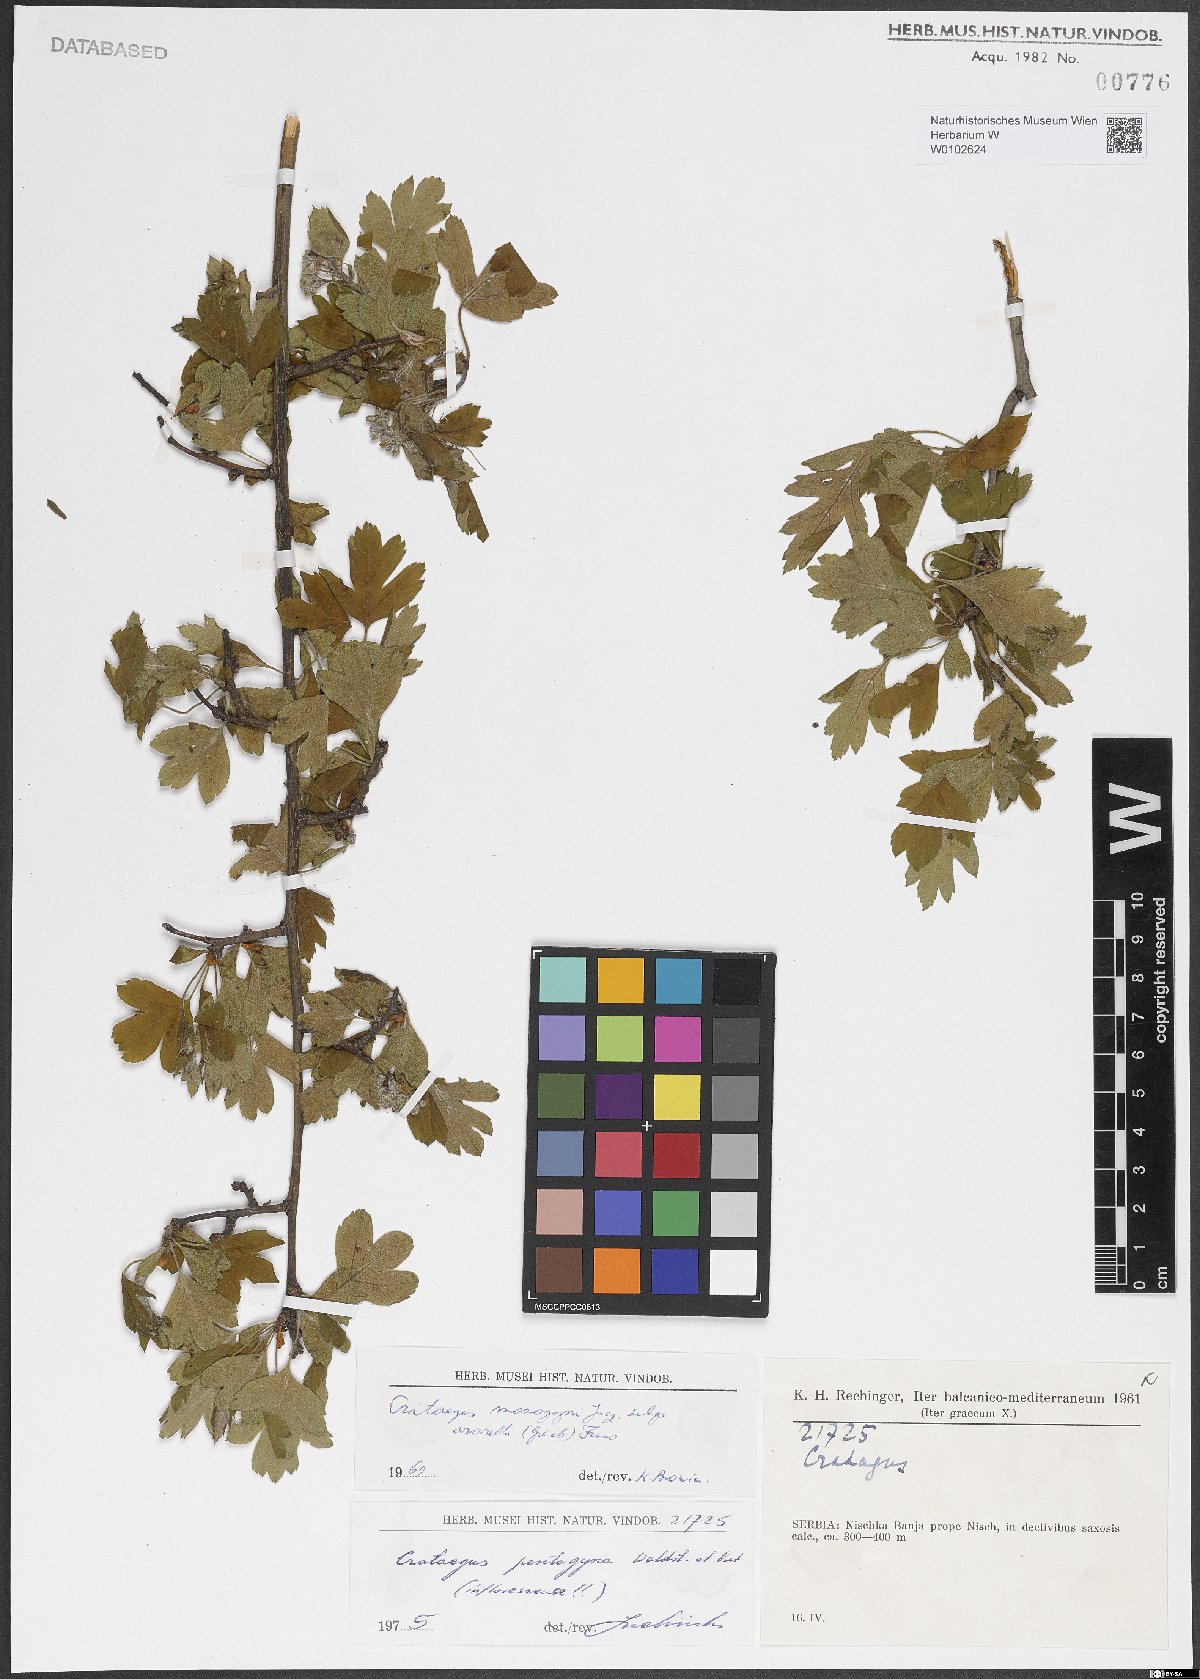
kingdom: Plantae
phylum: Tracheophyta
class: Magnoliopsida
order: Rosales
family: Rosaceae
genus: Crataegus
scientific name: Crataegus pentagyna
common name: Small-flowered black hawthorn
